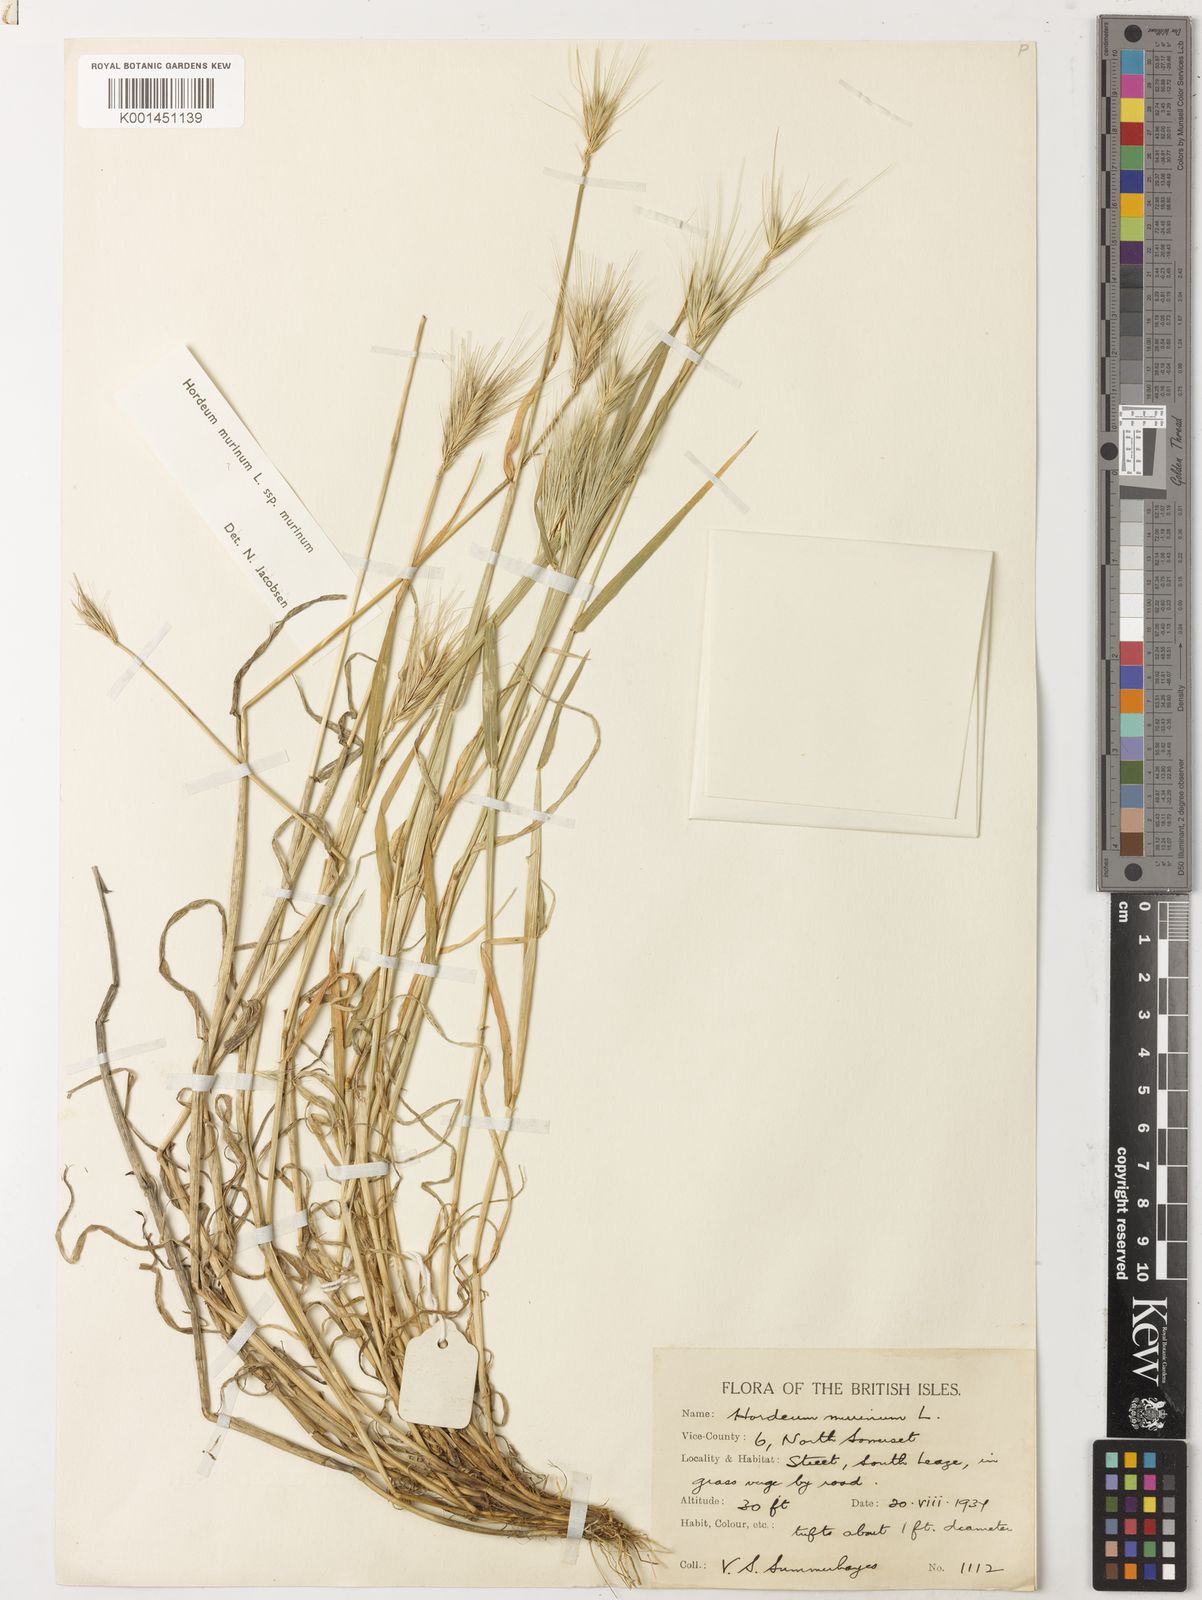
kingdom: Plantae
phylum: Tracheophyta
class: Liliopsida
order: Poales
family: Poaceae
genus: Hordeum
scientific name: Hordeum murinum
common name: Wall barley
